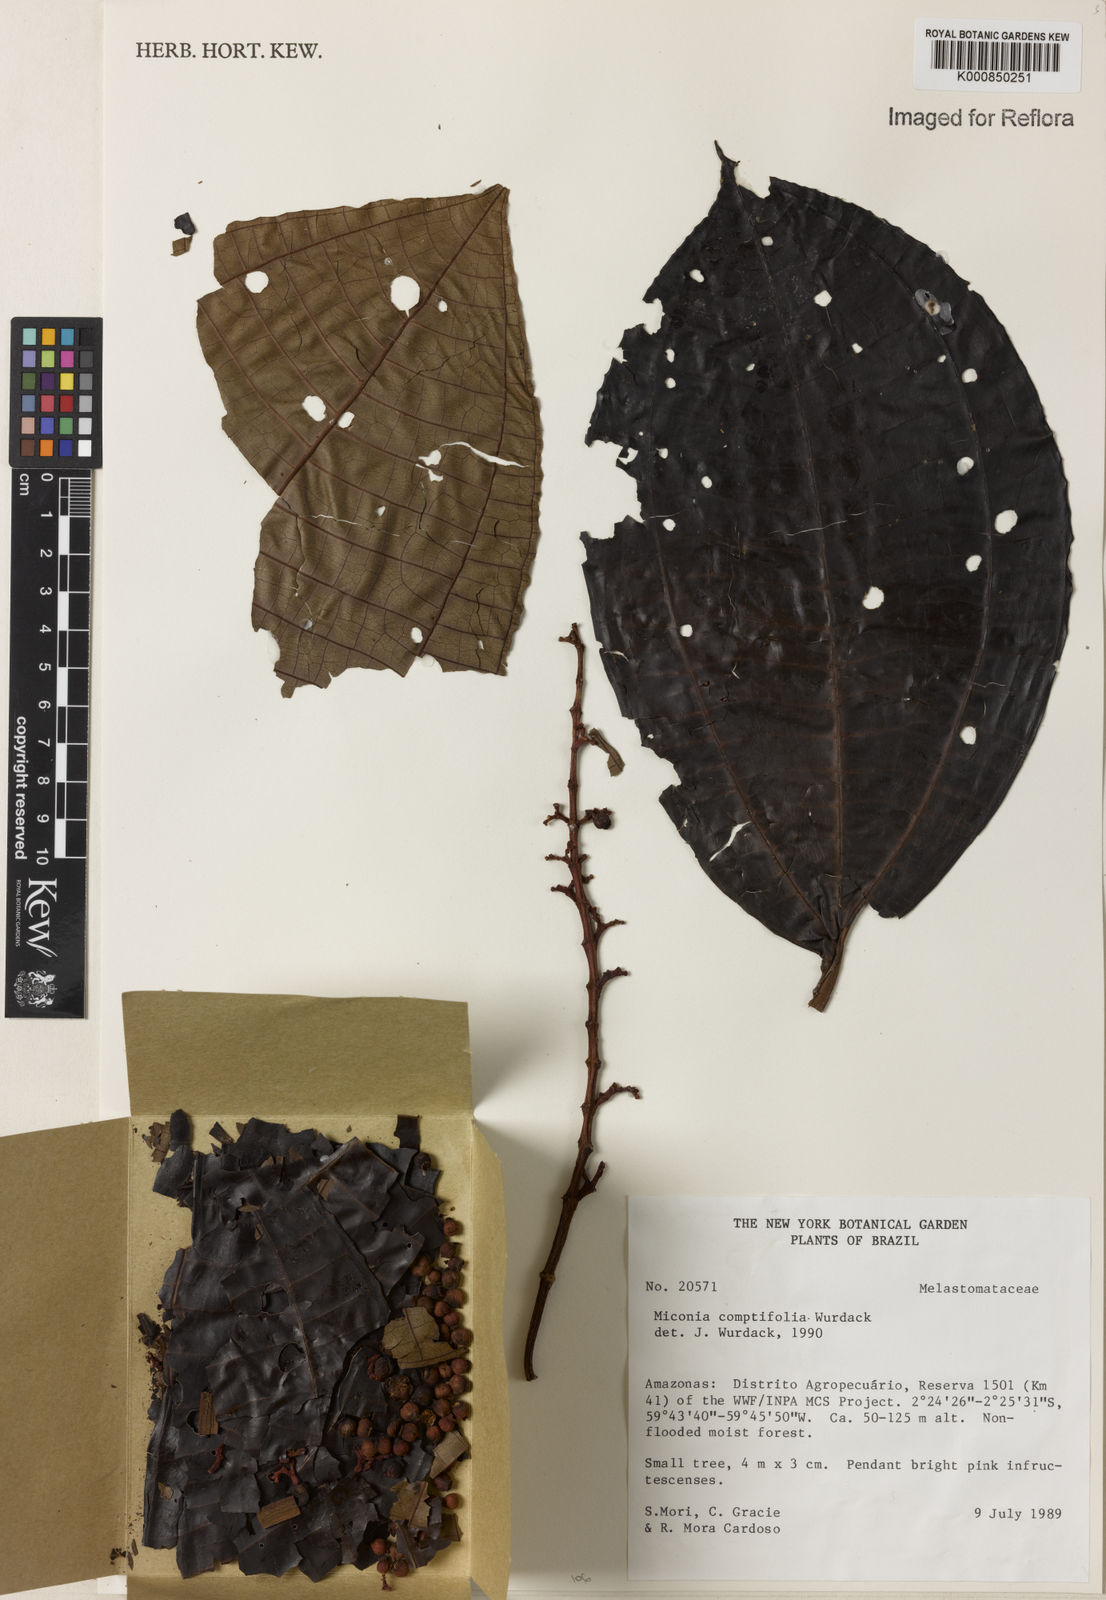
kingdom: Plantae
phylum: Tracheophyta
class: Magnoliopsida
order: Myrtales
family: Melastomataceae
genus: Miconia
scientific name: Miconia comptifolia
